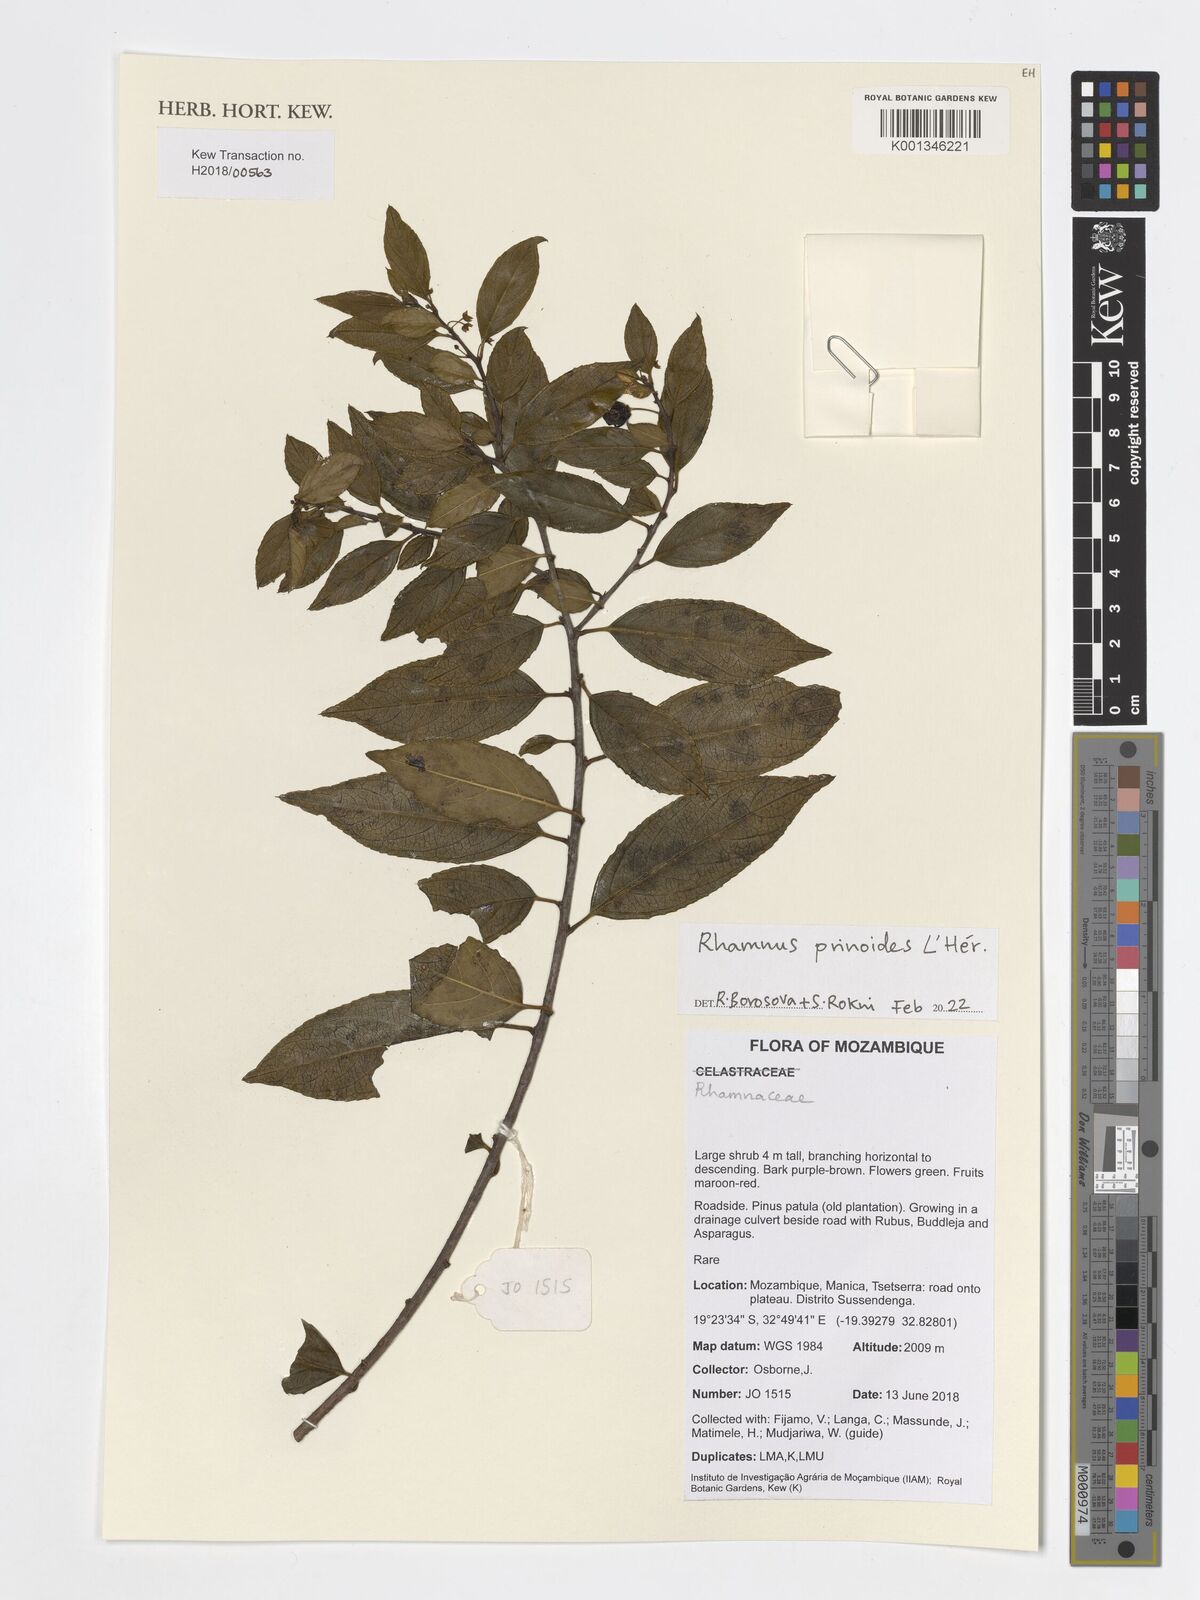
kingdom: Plantae
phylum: Tracheophyta
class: Magnoliopsida
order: Rosales
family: Rhamnaceae
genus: Rhamnus
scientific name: Rhamnus prinoides
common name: Dogwood
